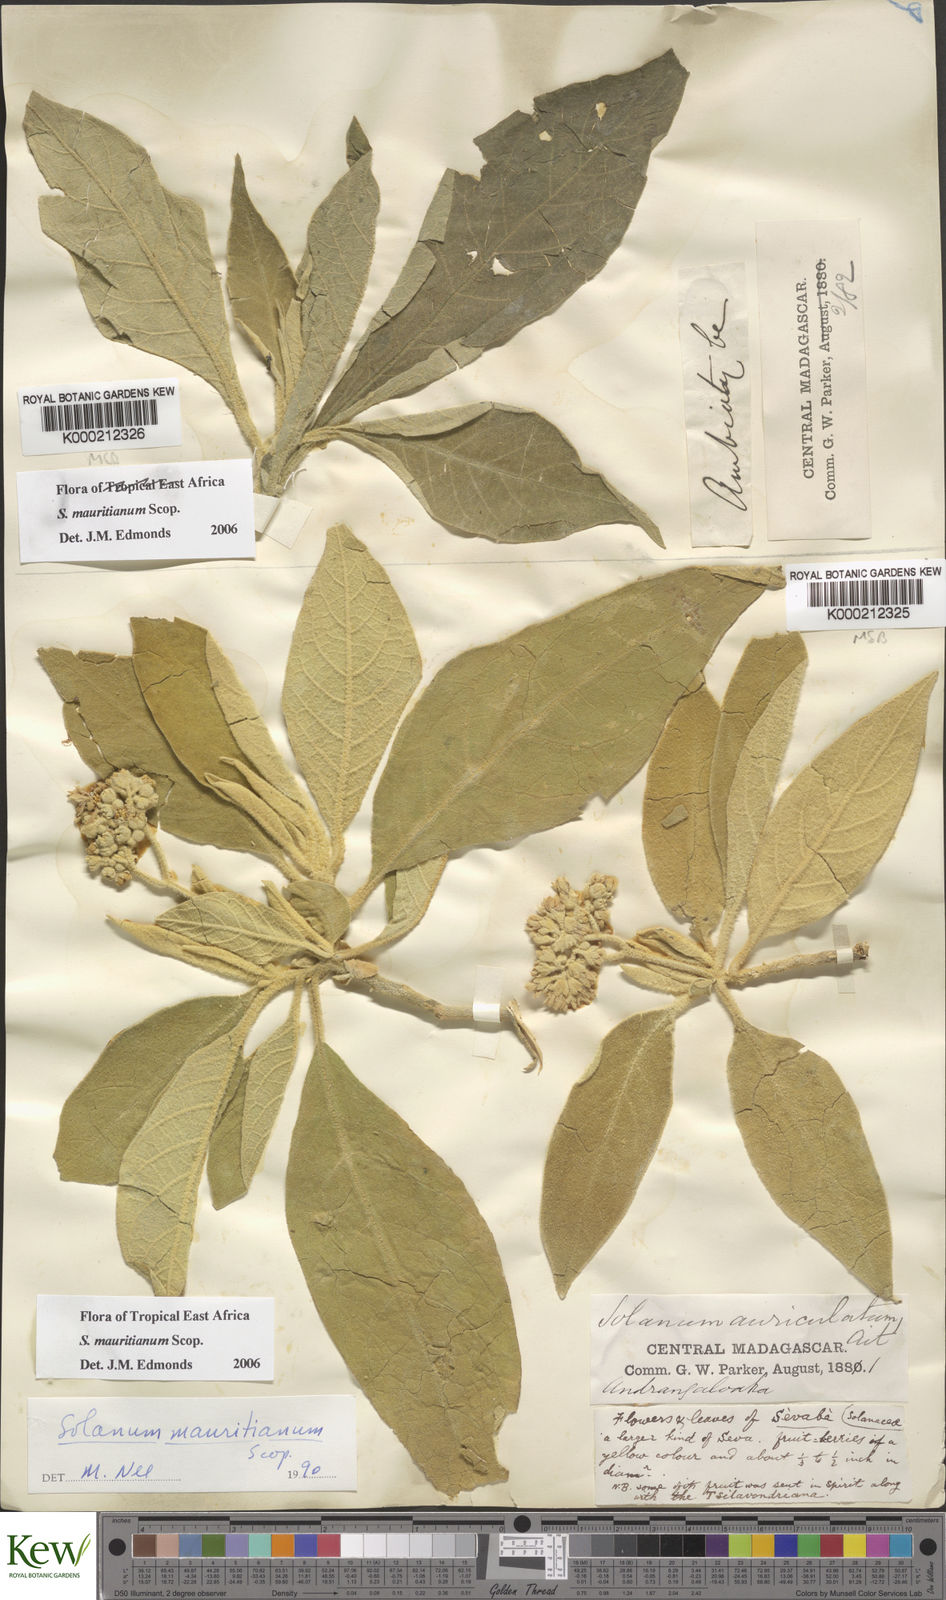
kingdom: Plantae
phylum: Tracheophyta
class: Magnoliopsida
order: Solanales
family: Solanaceae
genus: Solanum
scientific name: Solanum mauritianum
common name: Earleaf nightshade
